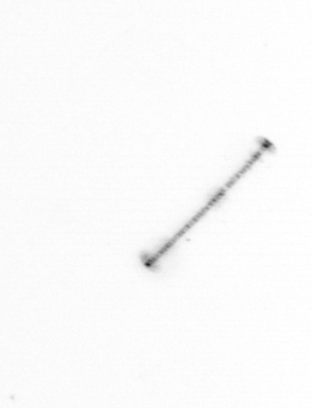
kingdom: Chromista
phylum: Ochrophyta
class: Bacillariophyceae
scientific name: Bacillariophyceae
